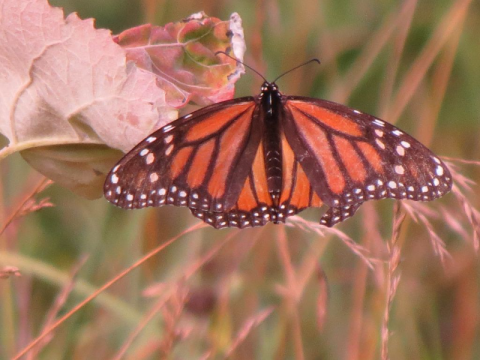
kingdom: Animalia
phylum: Arthropoda
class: Insecta
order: Lepidoptera
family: Nymphalidae
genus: Danaus
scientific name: Danaus plexippus
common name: Monarch
